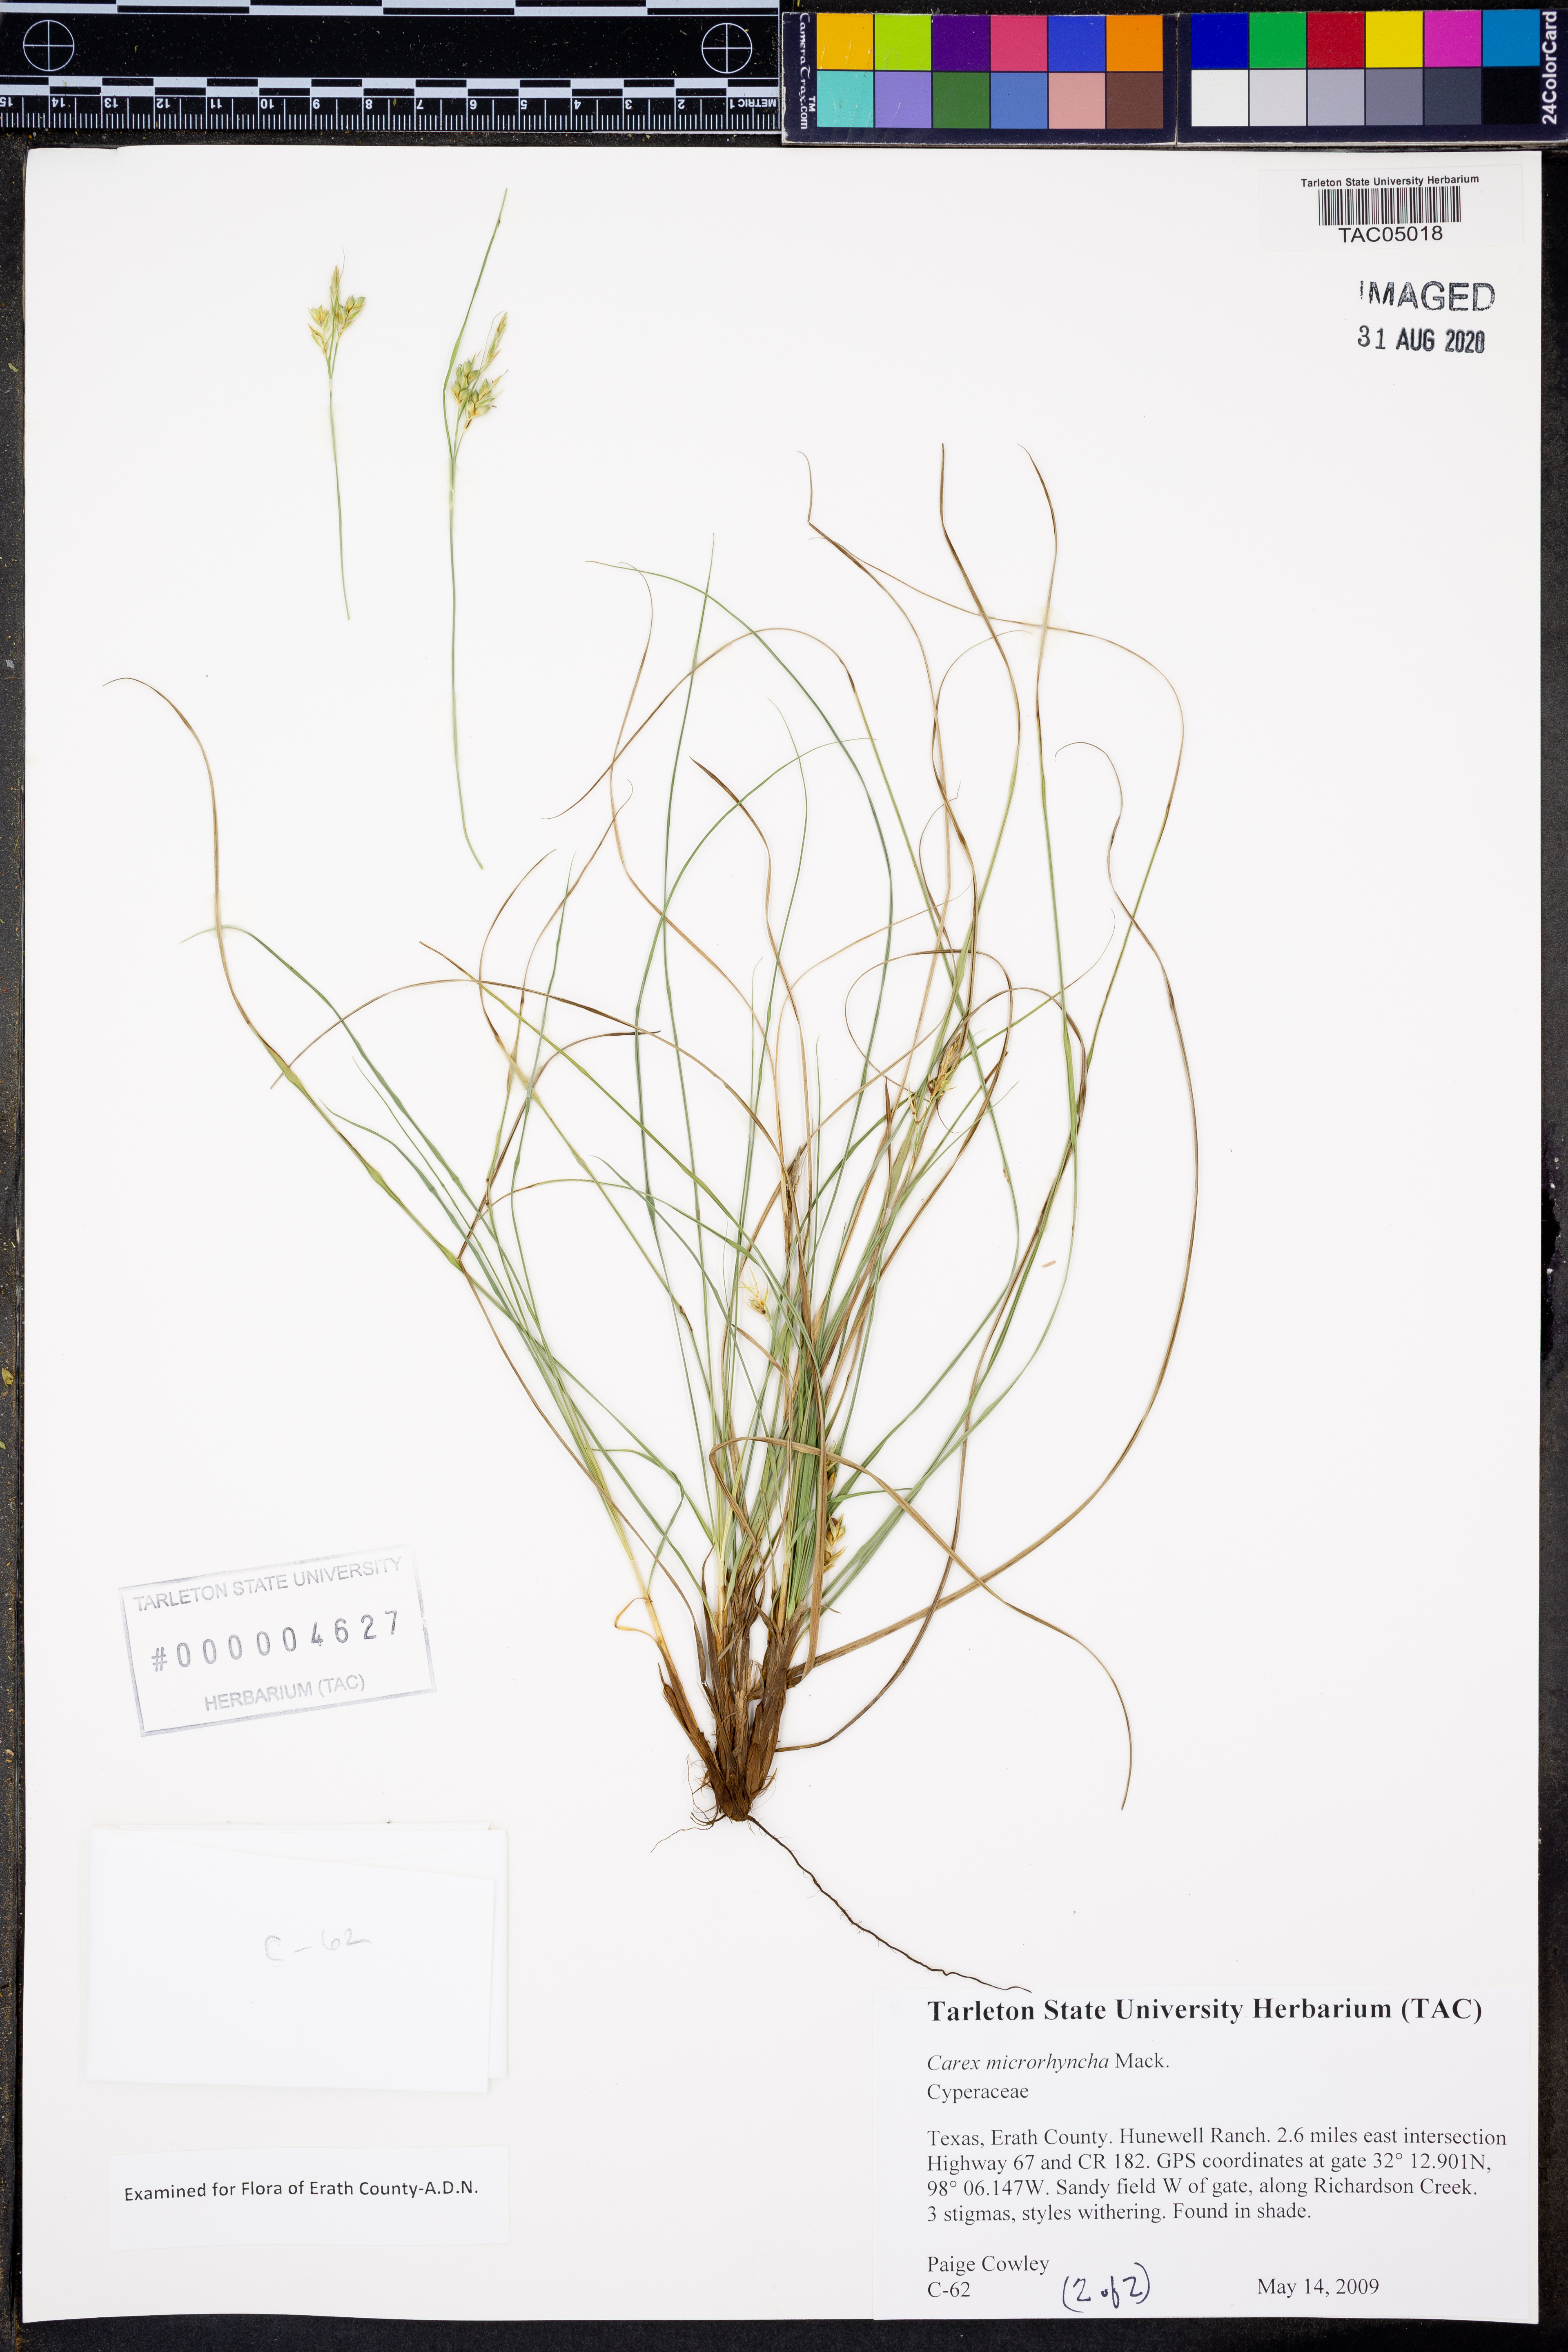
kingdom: Plantae
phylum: Tracheophyta
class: Liliopsida
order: Poales
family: Cyperaceae
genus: Carex
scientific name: Carex microrhyncha
